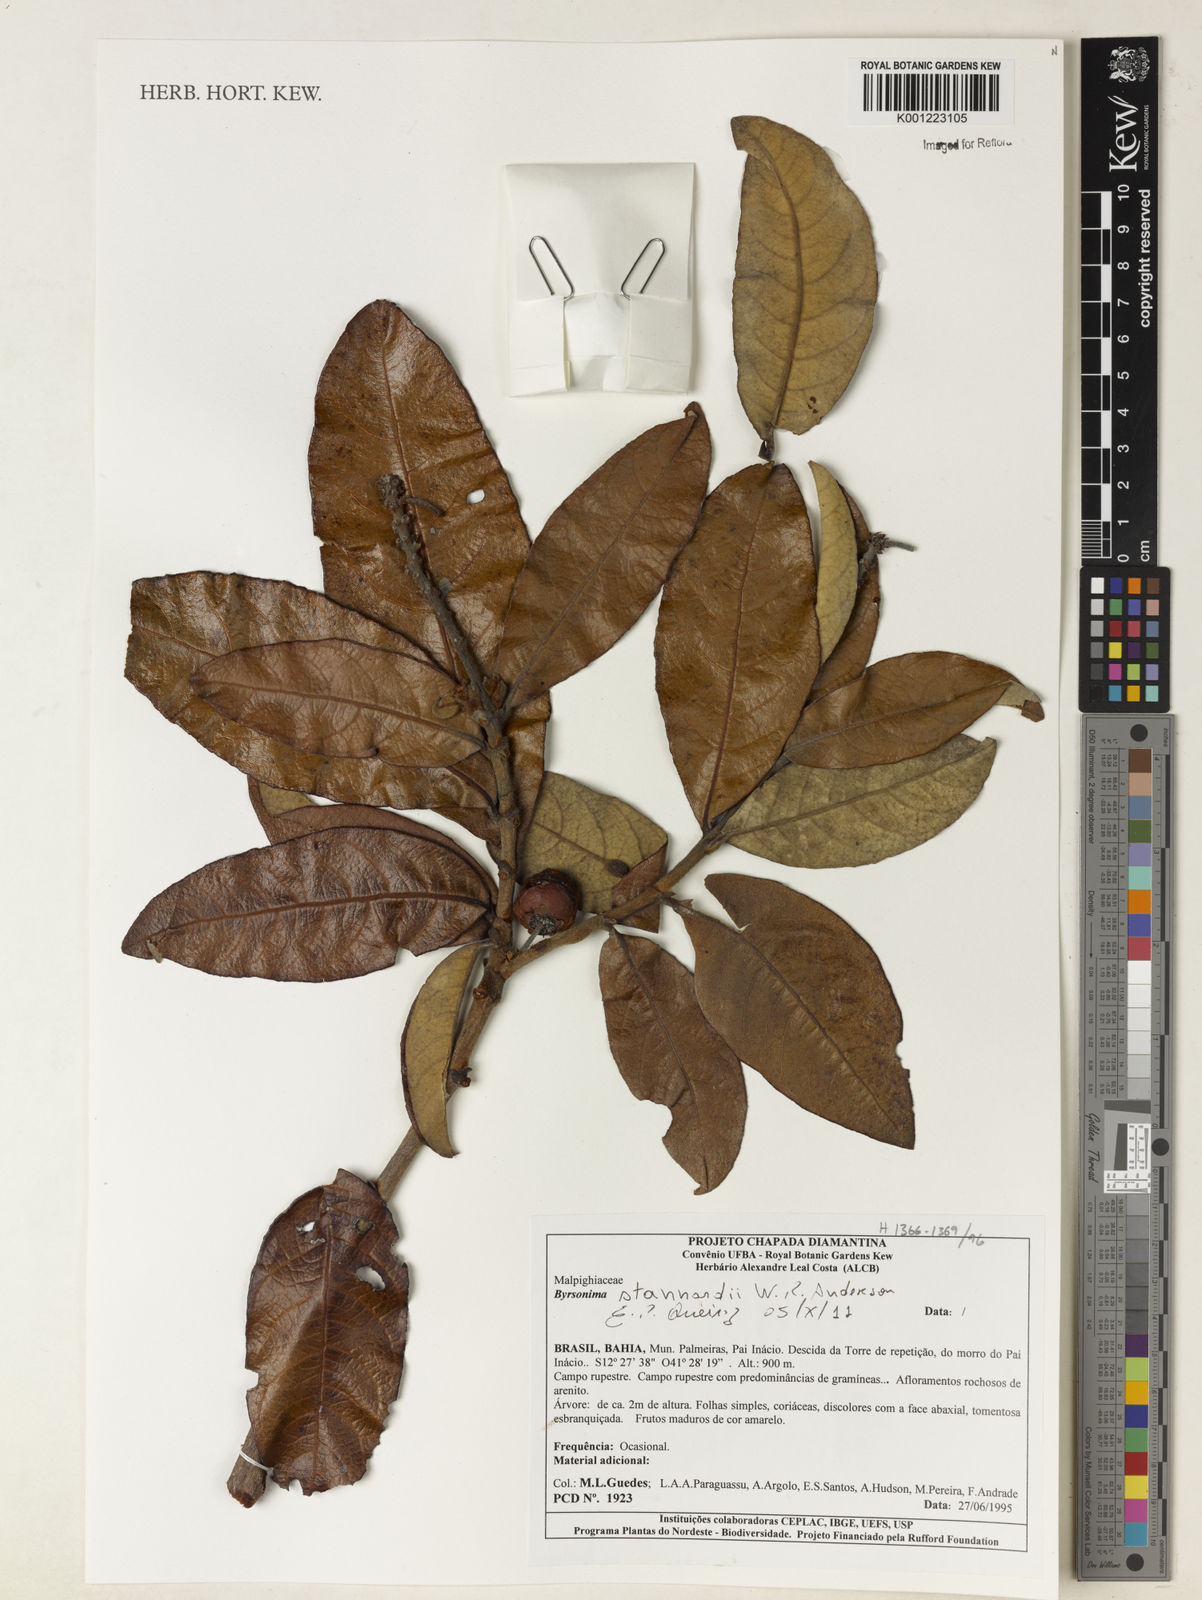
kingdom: Plantae
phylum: Tracheophyta
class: Magnoliopsida
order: Malpighiales
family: Malpighiaceae
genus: Byrsonima
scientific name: Byrsonima stannardii
